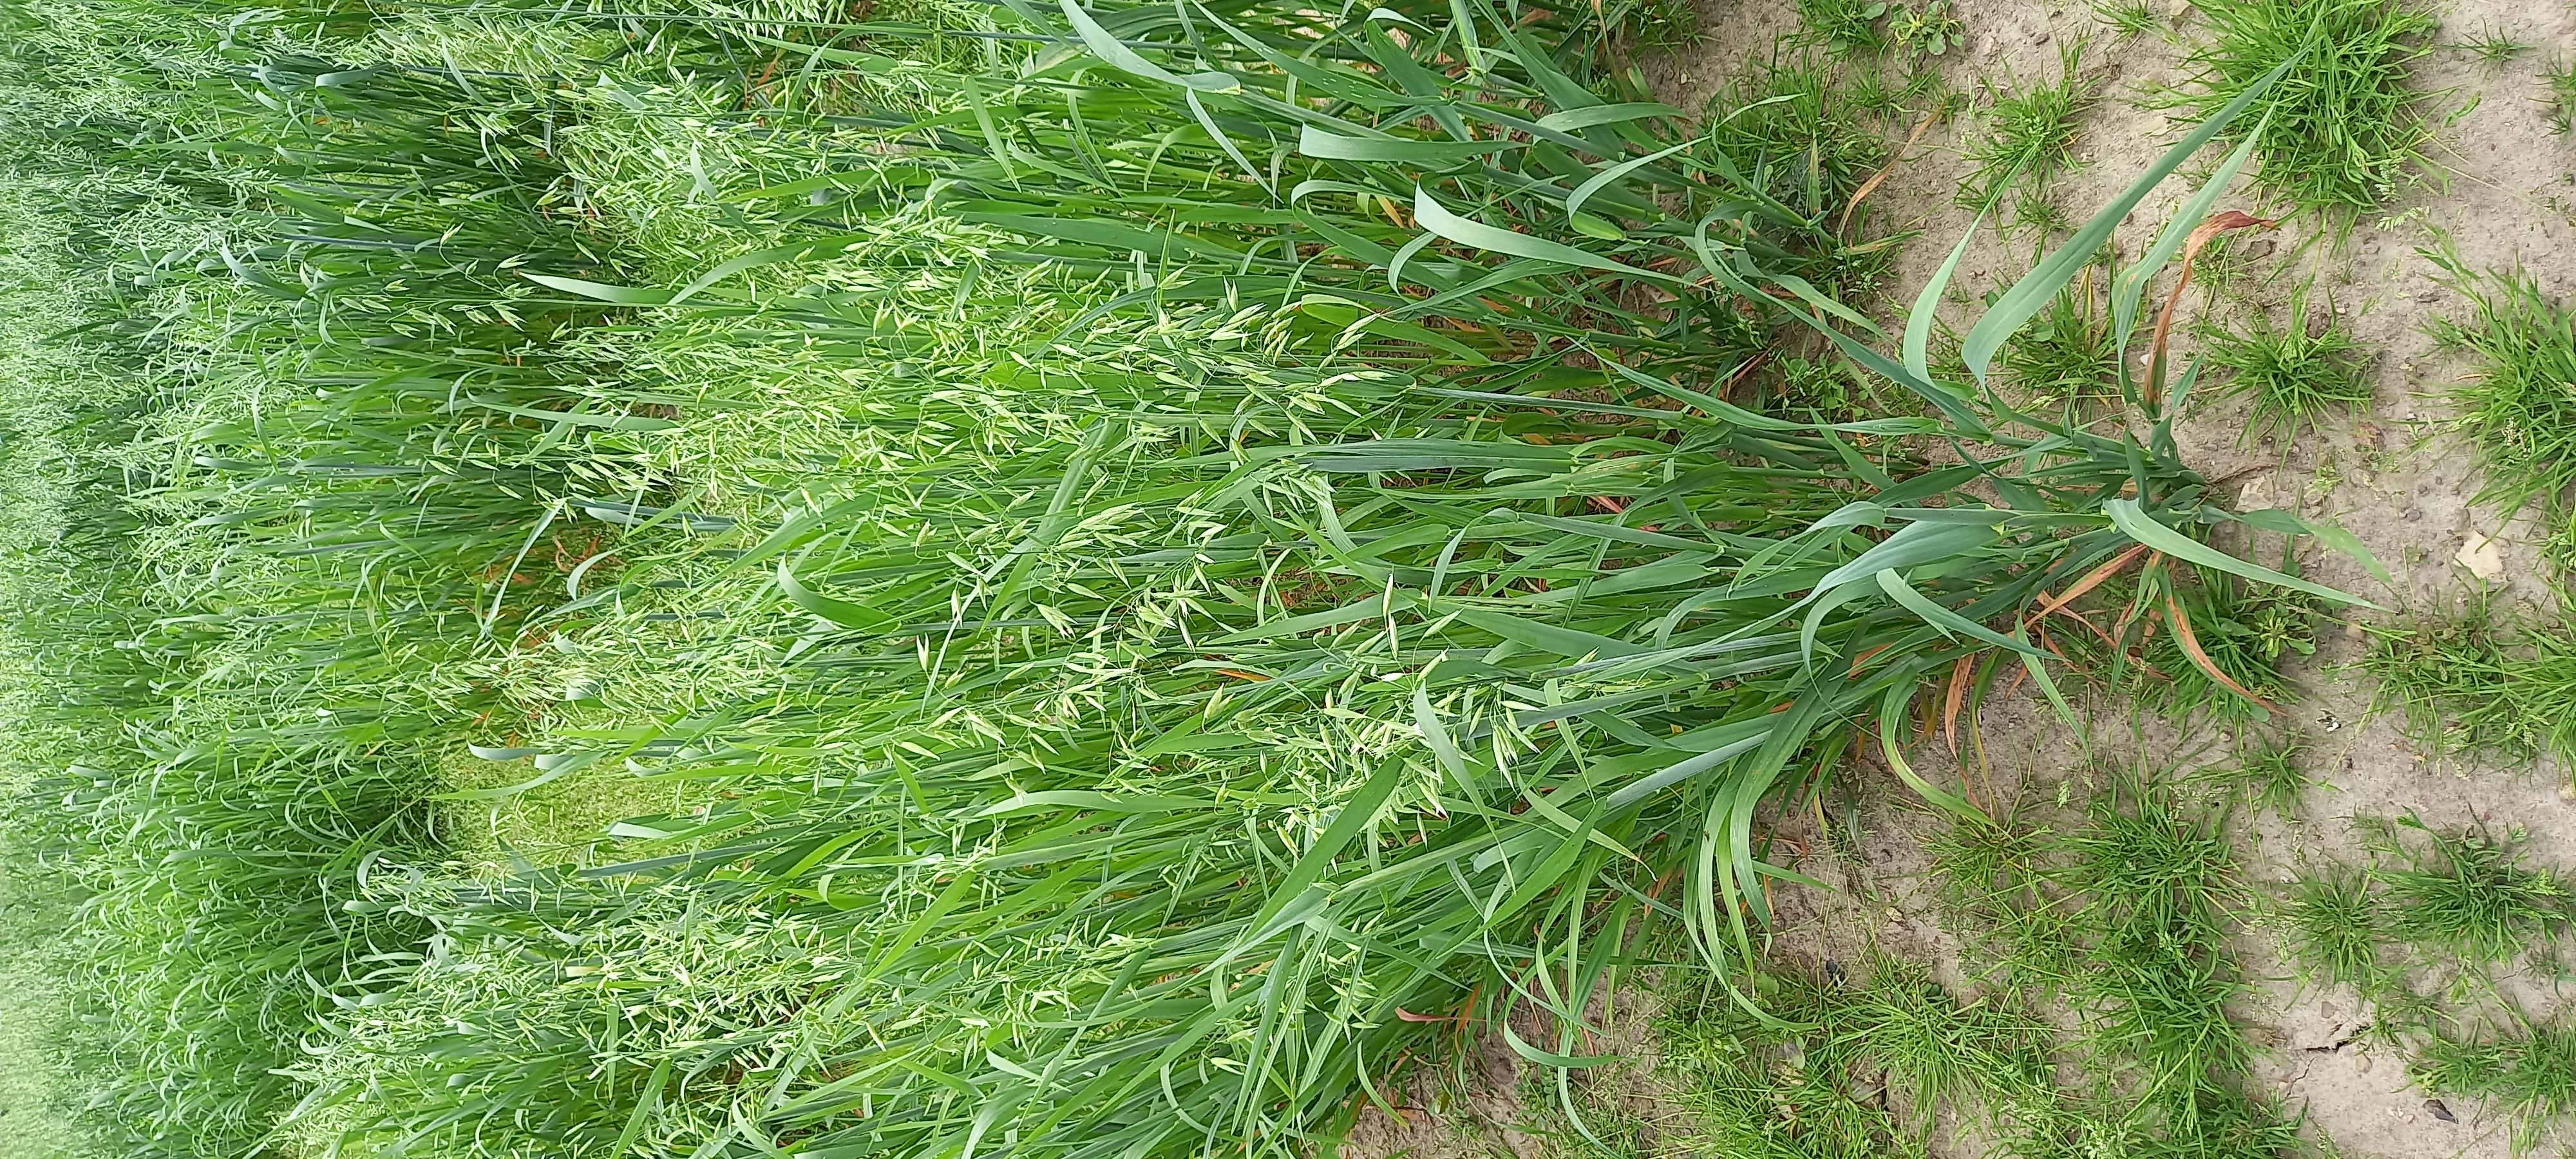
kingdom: Plantae
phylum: Tracheophyta
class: Liliopsida
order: Poales
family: Poaceae
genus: Avena
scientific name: Avena sativa
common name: Oat
